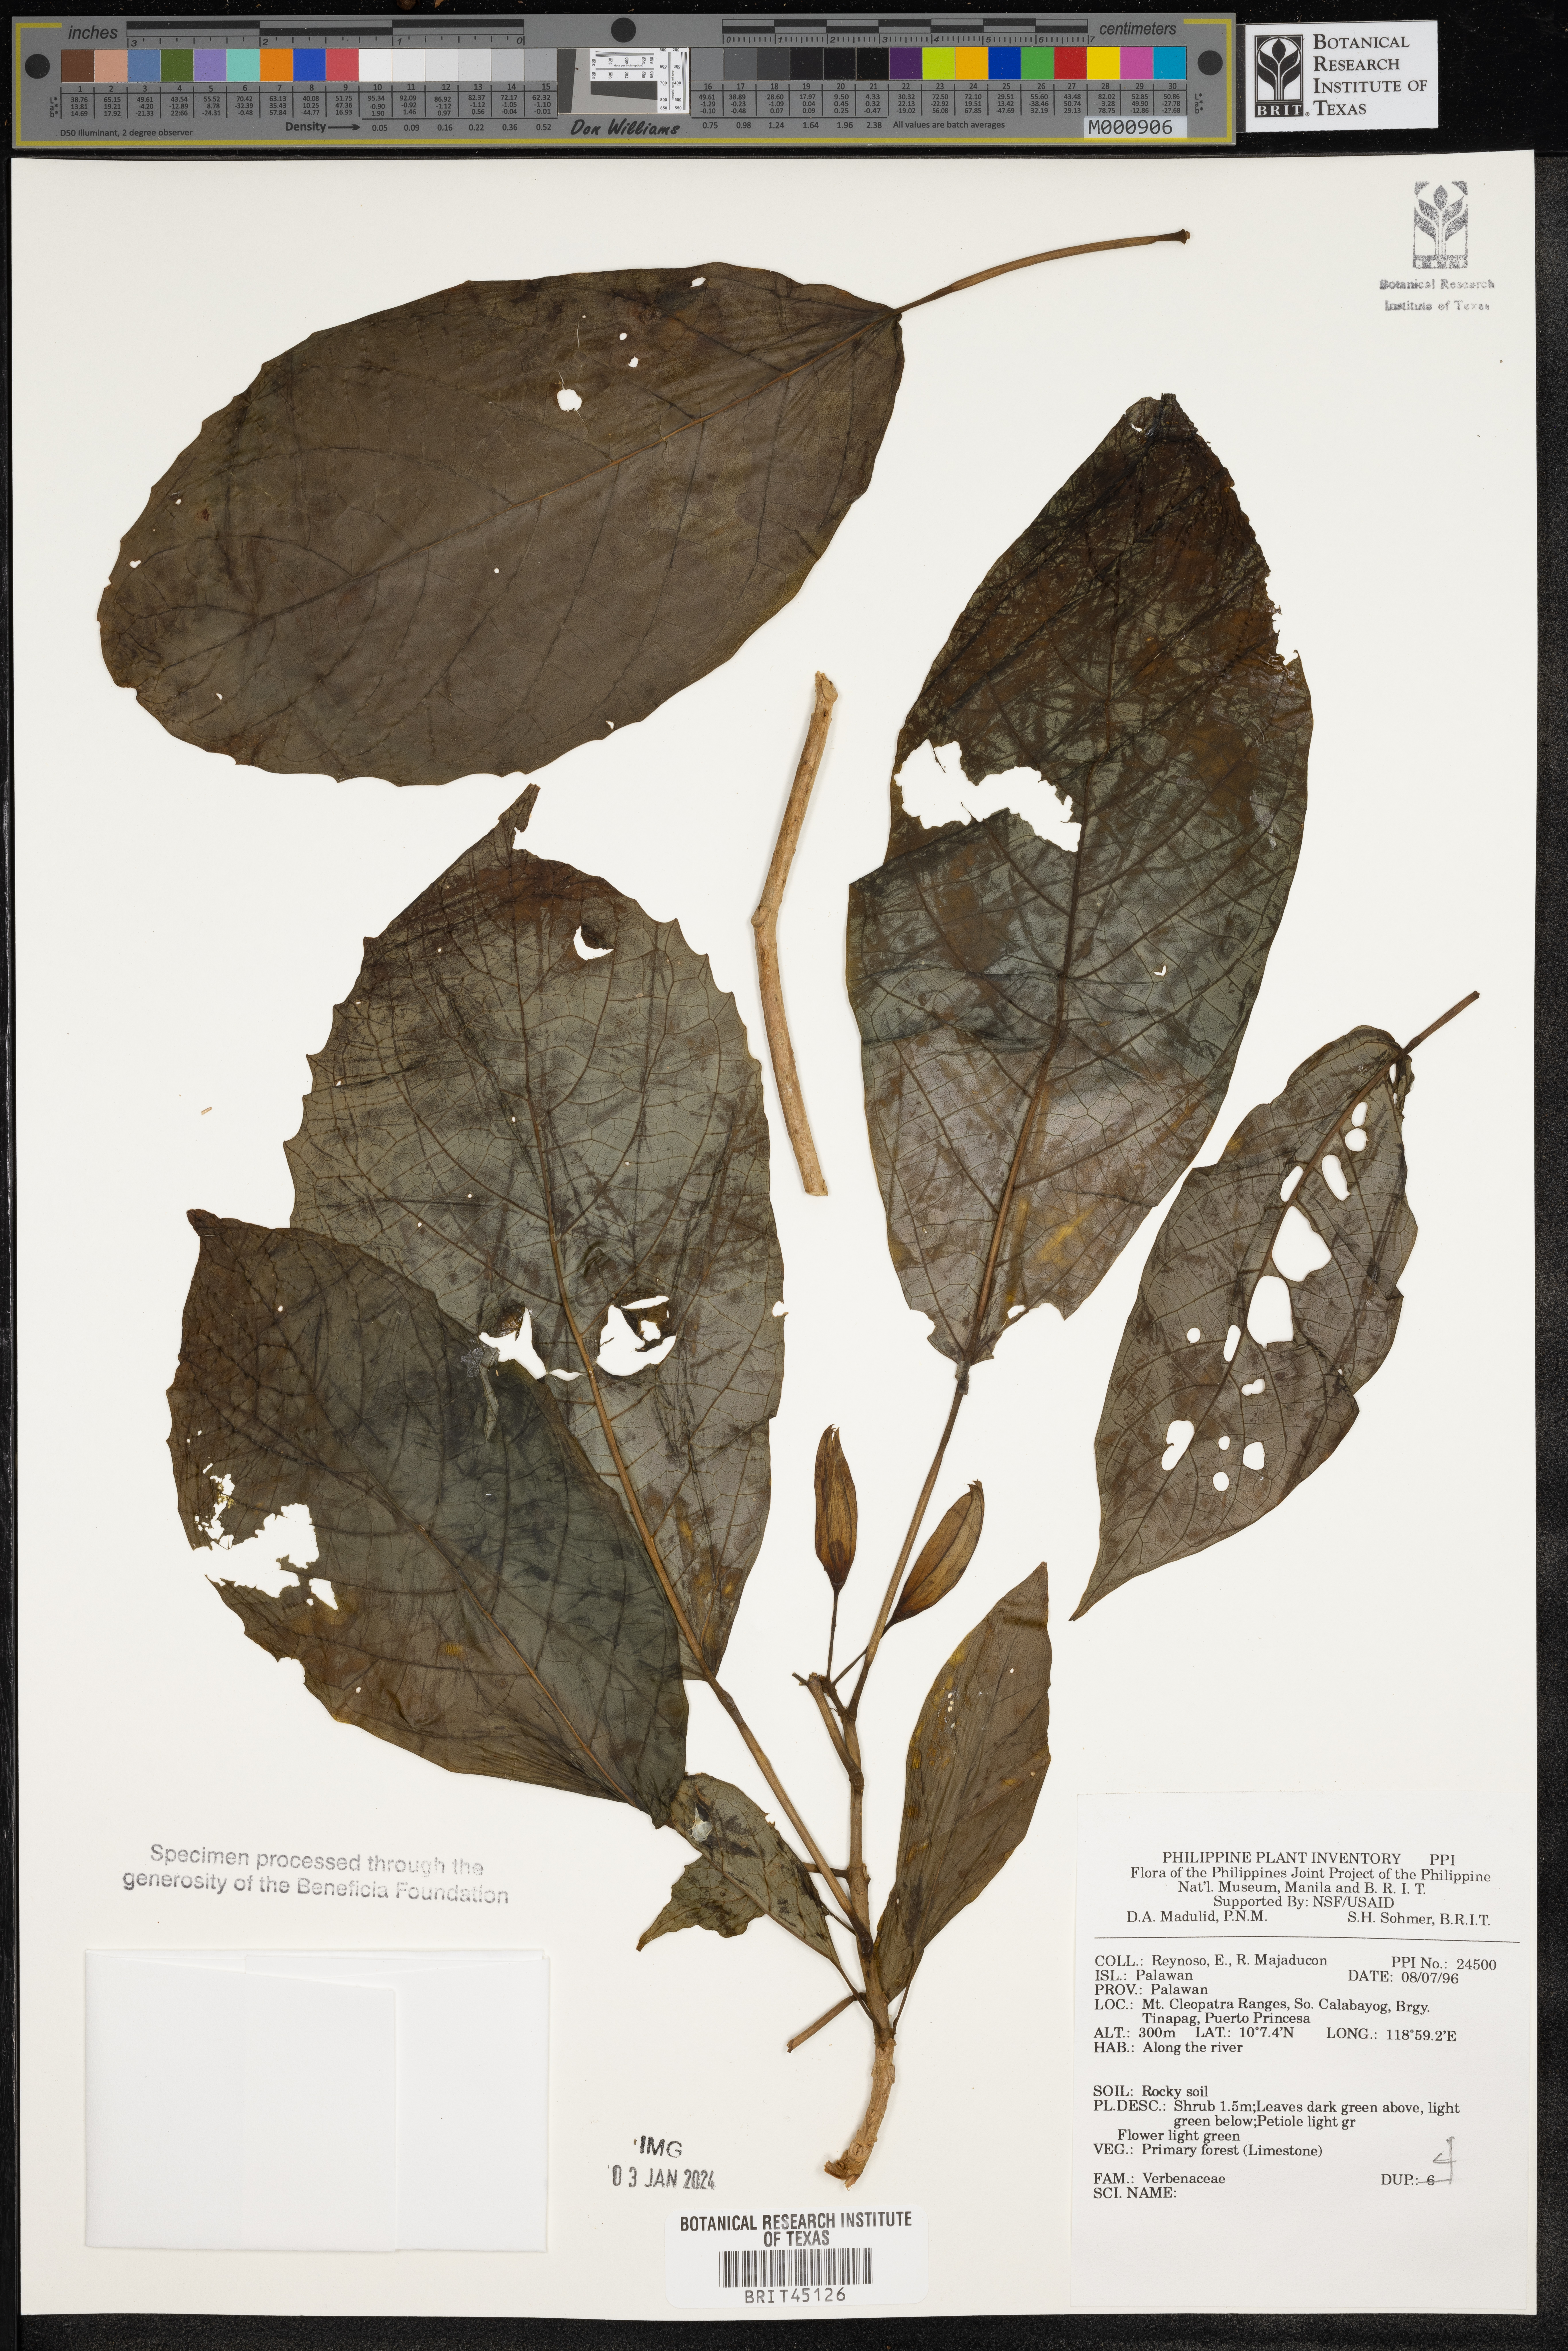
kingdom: Plantae
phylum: Tracheophyta
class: Magnoliopsida
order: Lamiales
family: Verbenaceae
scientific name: Verbenaceae
